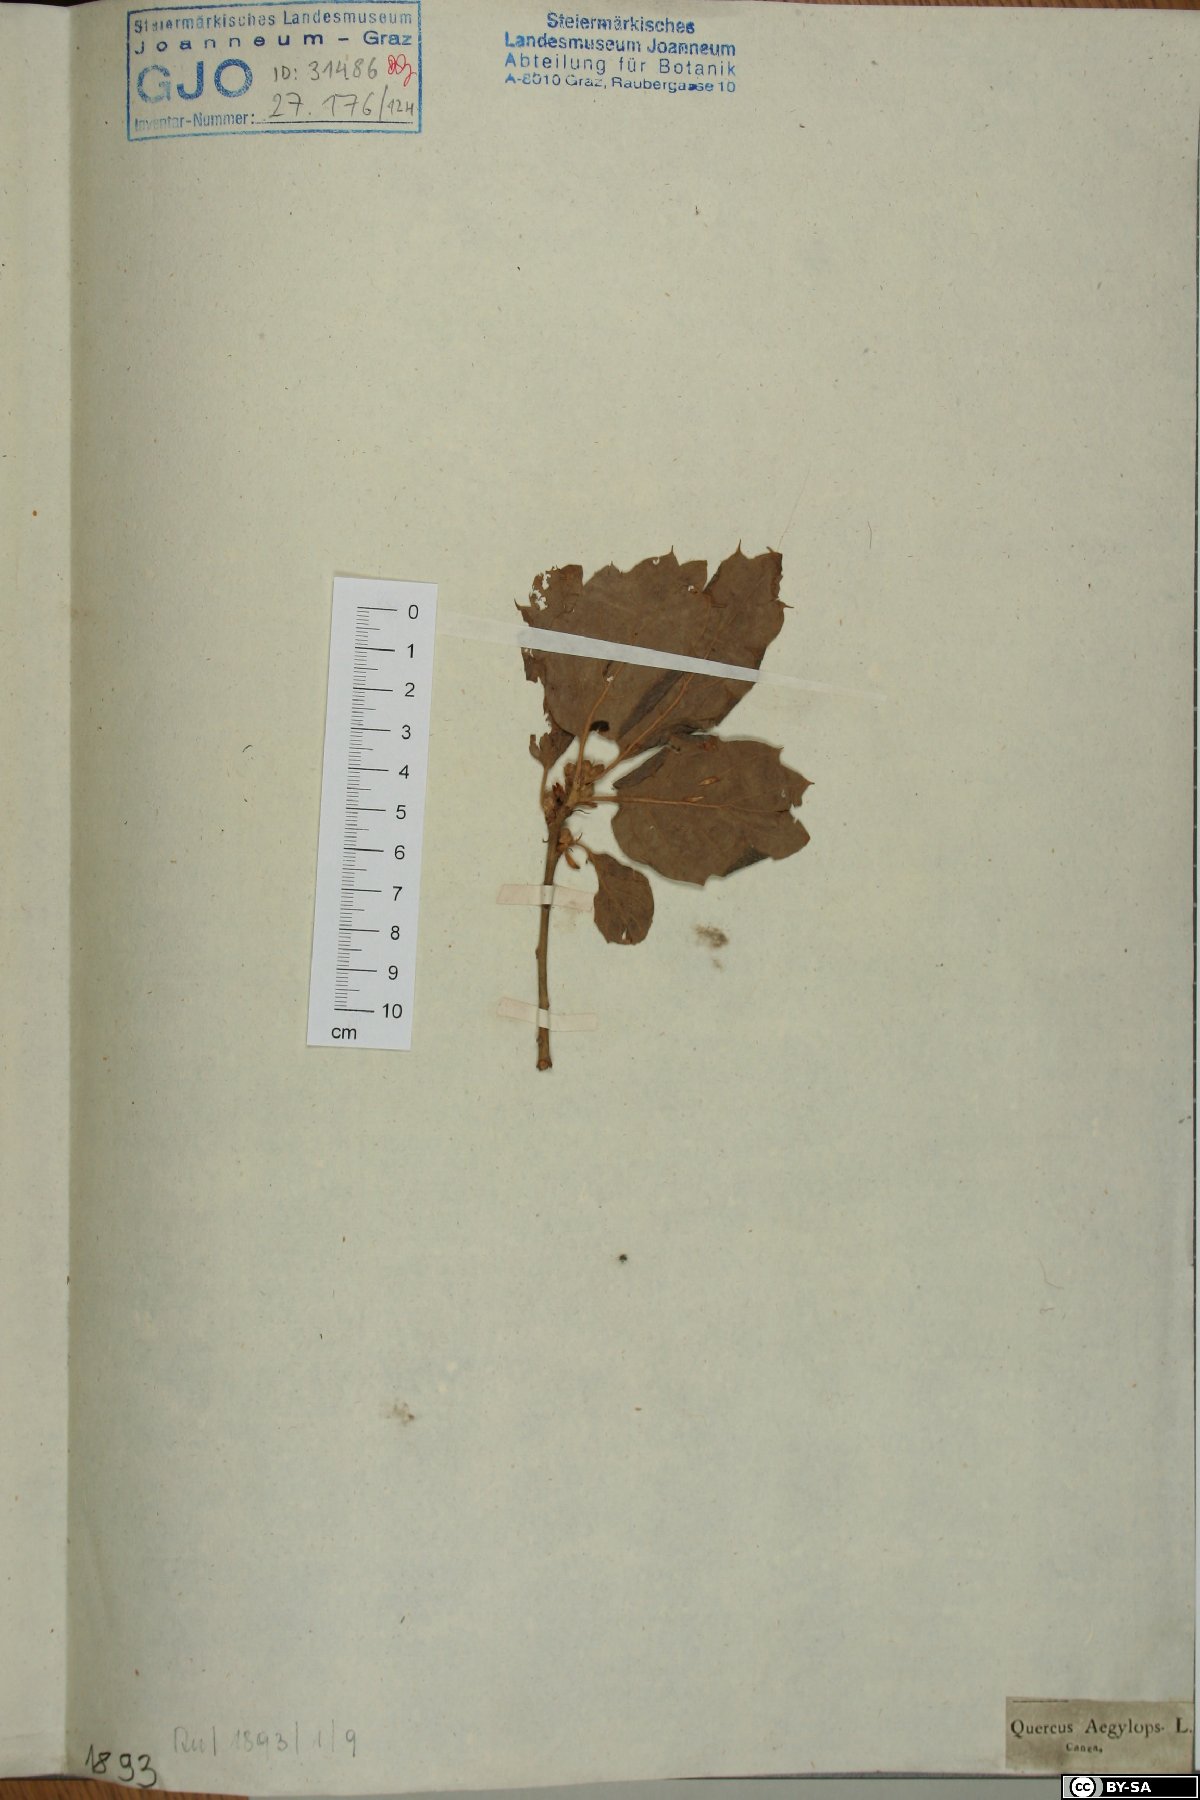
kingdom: Plantae
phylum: Tracheophyta
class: Magnoliopsida
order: Fagales
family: Fagaceae
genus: Quercus
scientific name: Quercus ithaburensis
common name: Tabor oak
